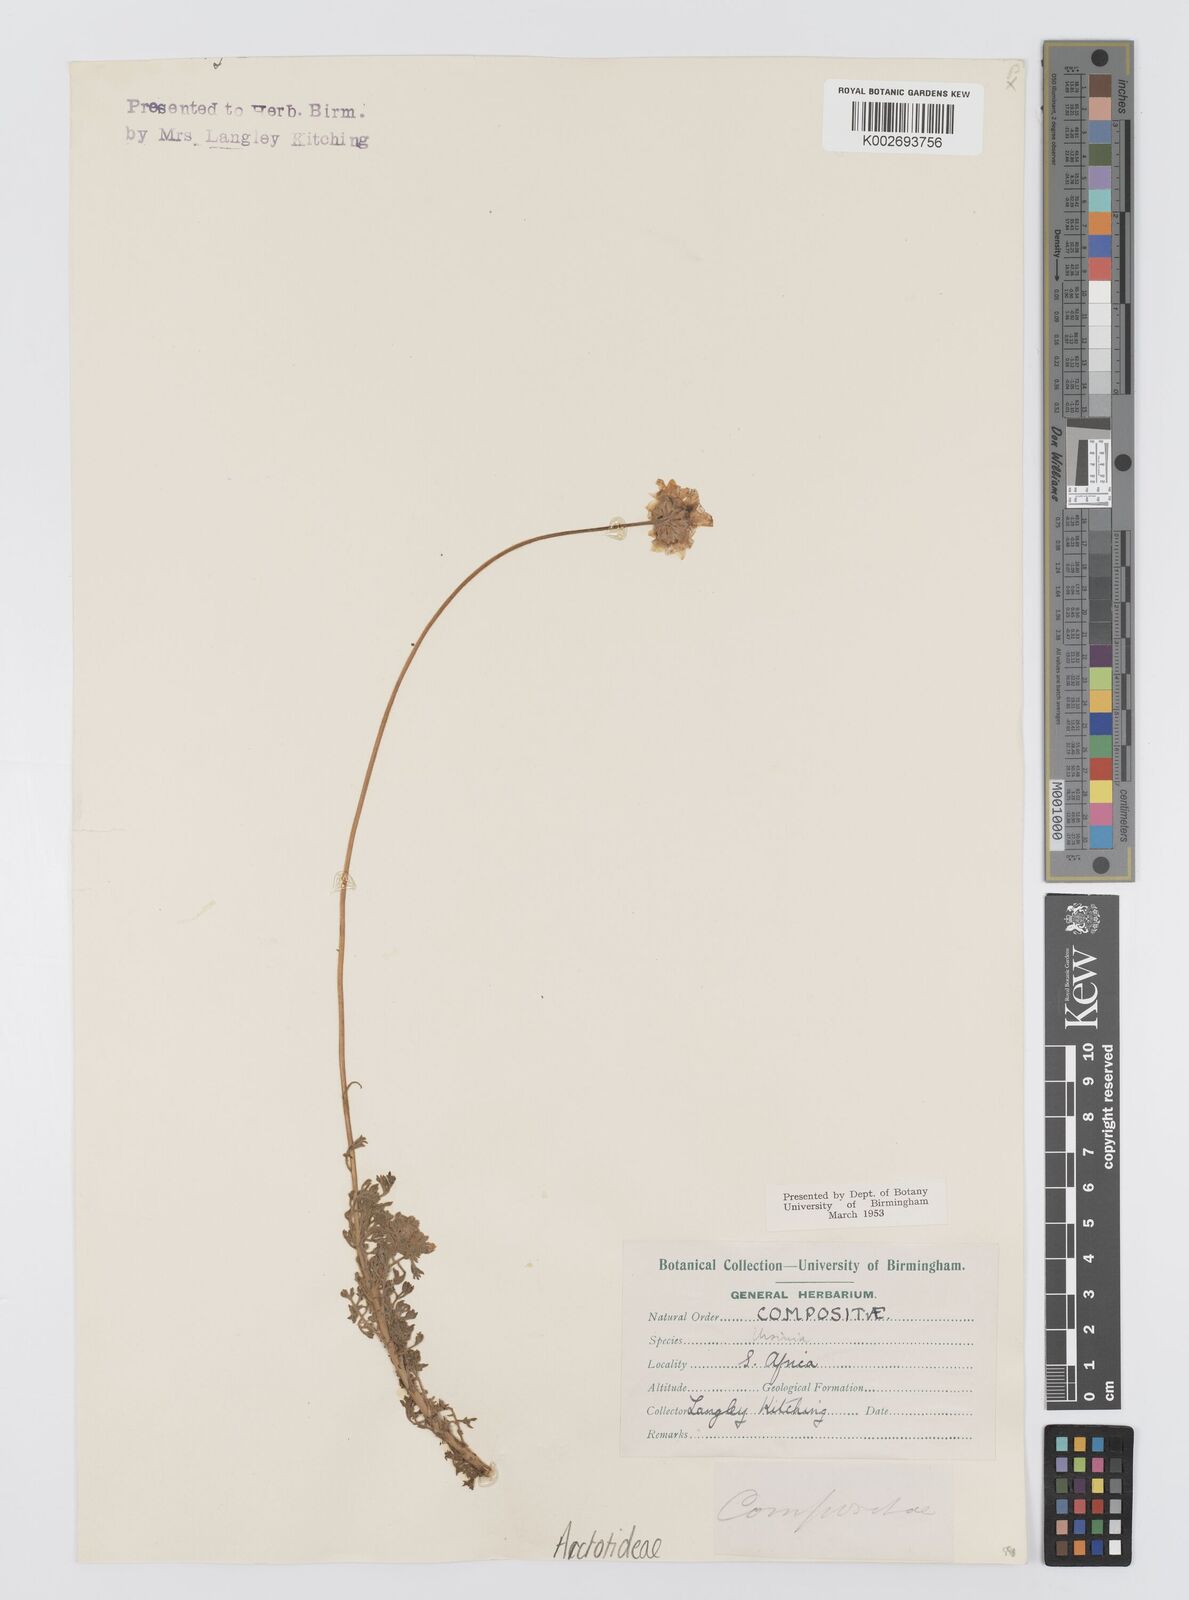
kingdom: Plantae
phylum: Tracheophyta
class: Magnoliopsida
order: Asterales
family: Asteraceae
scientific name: Asteraceae
